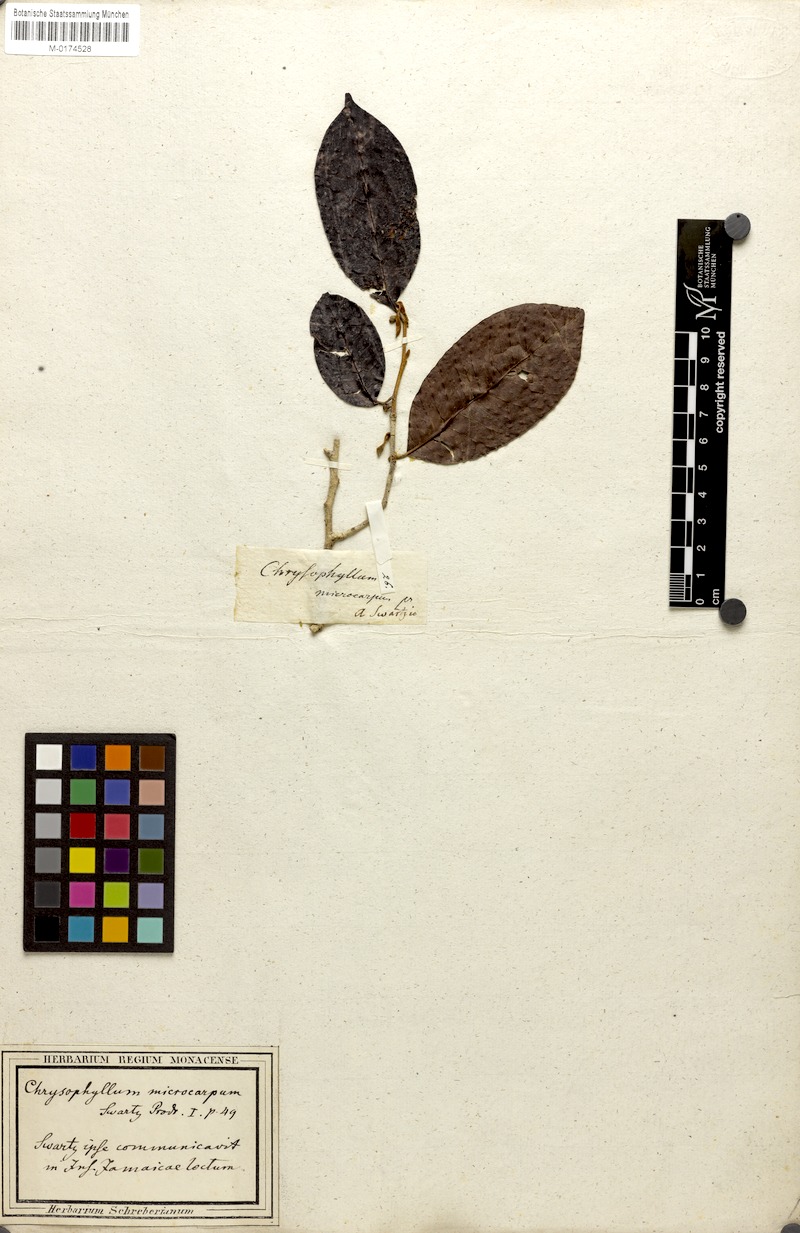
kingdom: Plantae
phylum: Tracheophyta
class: Magnoliopsida
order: Ericales
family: Sapotaceae
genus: Chrysophyllum
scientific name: Chrysophyllum argenteum
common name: Smooth star apple
